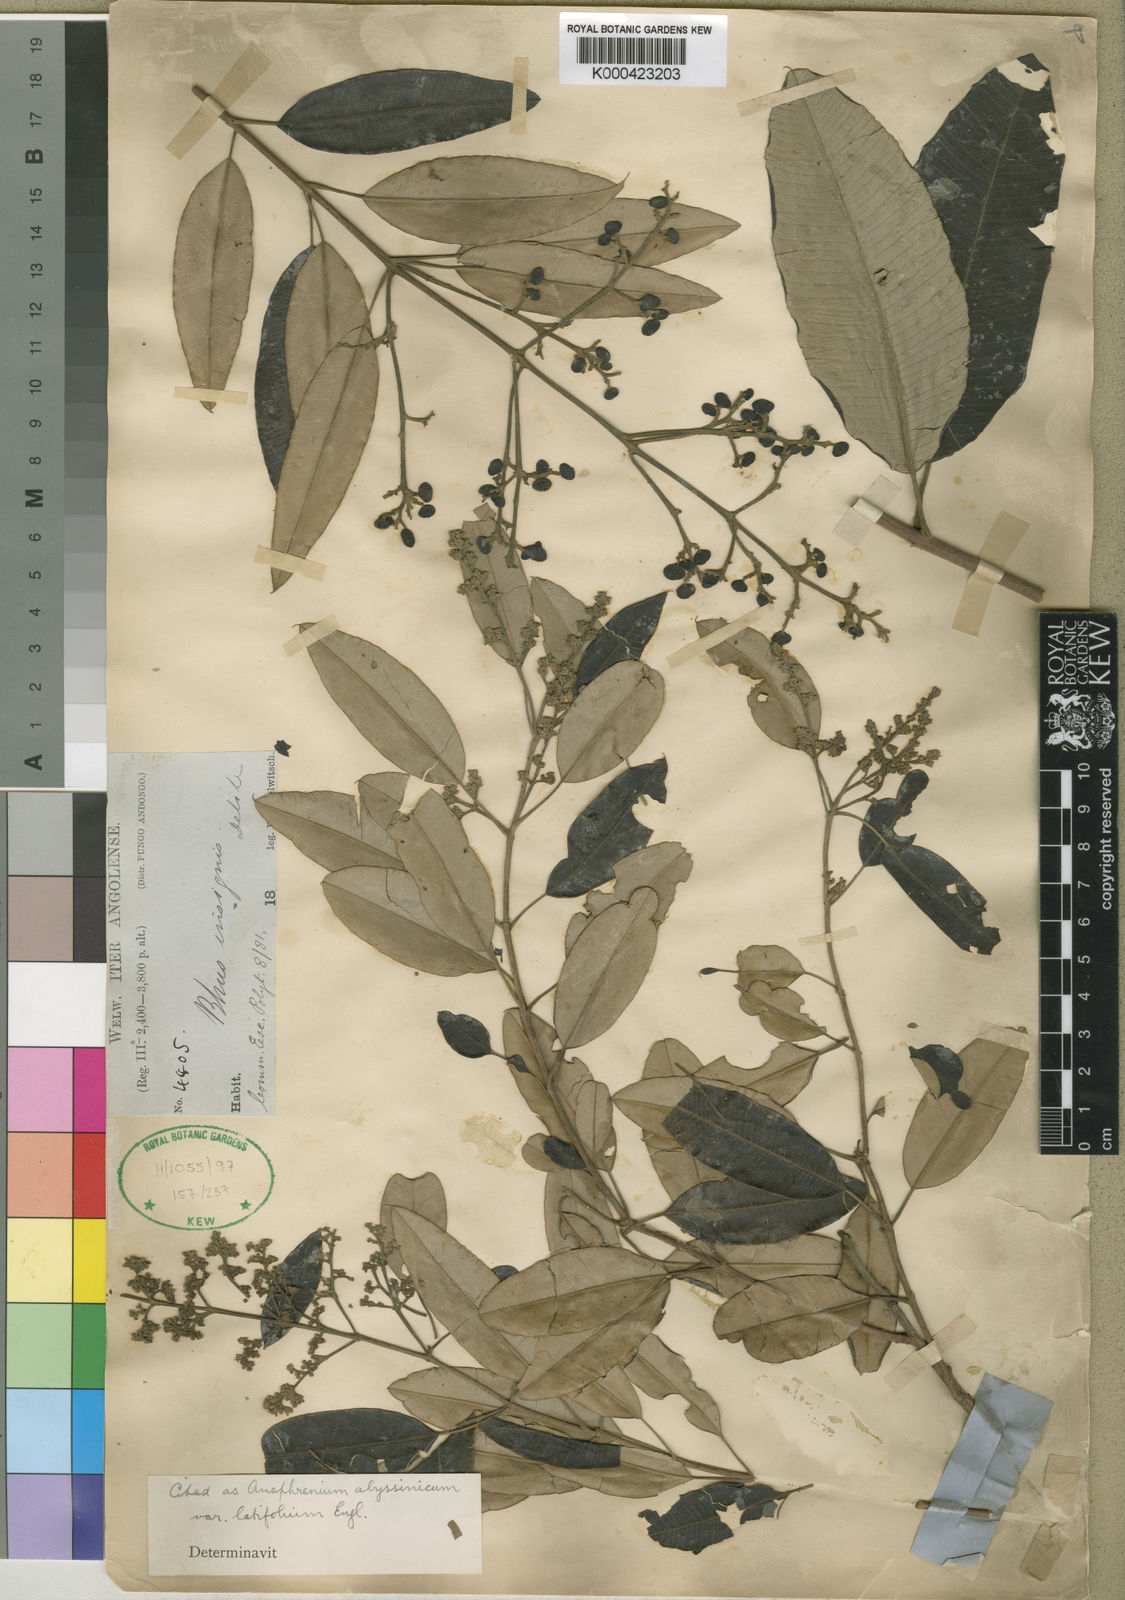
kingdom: Plantae
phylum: Tracheophyta
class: Magnoliopsida
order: Sapindales
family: Anacardiaceae
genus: Ozoroa
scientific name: Ozoroa insignis
